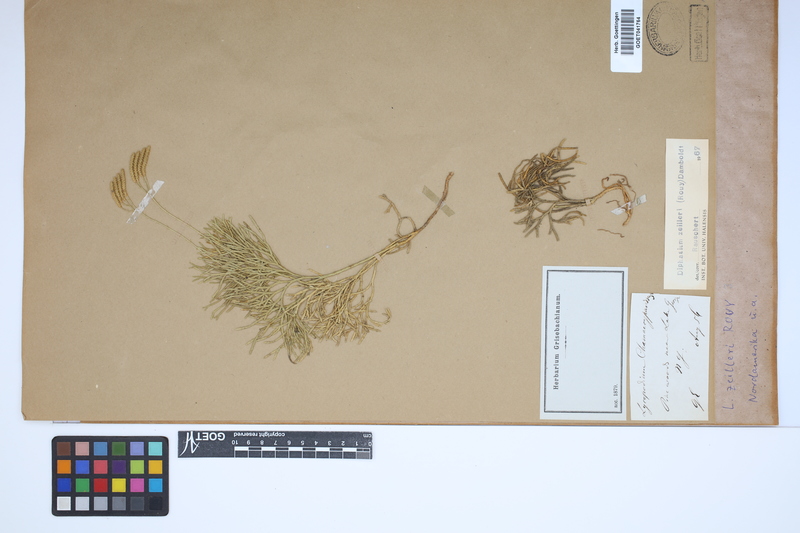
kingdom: Plantae
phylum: Tracheophyta
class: Lycopodiopsida
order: Lycopodiales
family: Lycopodiaceae
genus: Diphasiastrum
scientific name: Diphasiastrum zeilleri
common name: Zeiller's clubmoss
